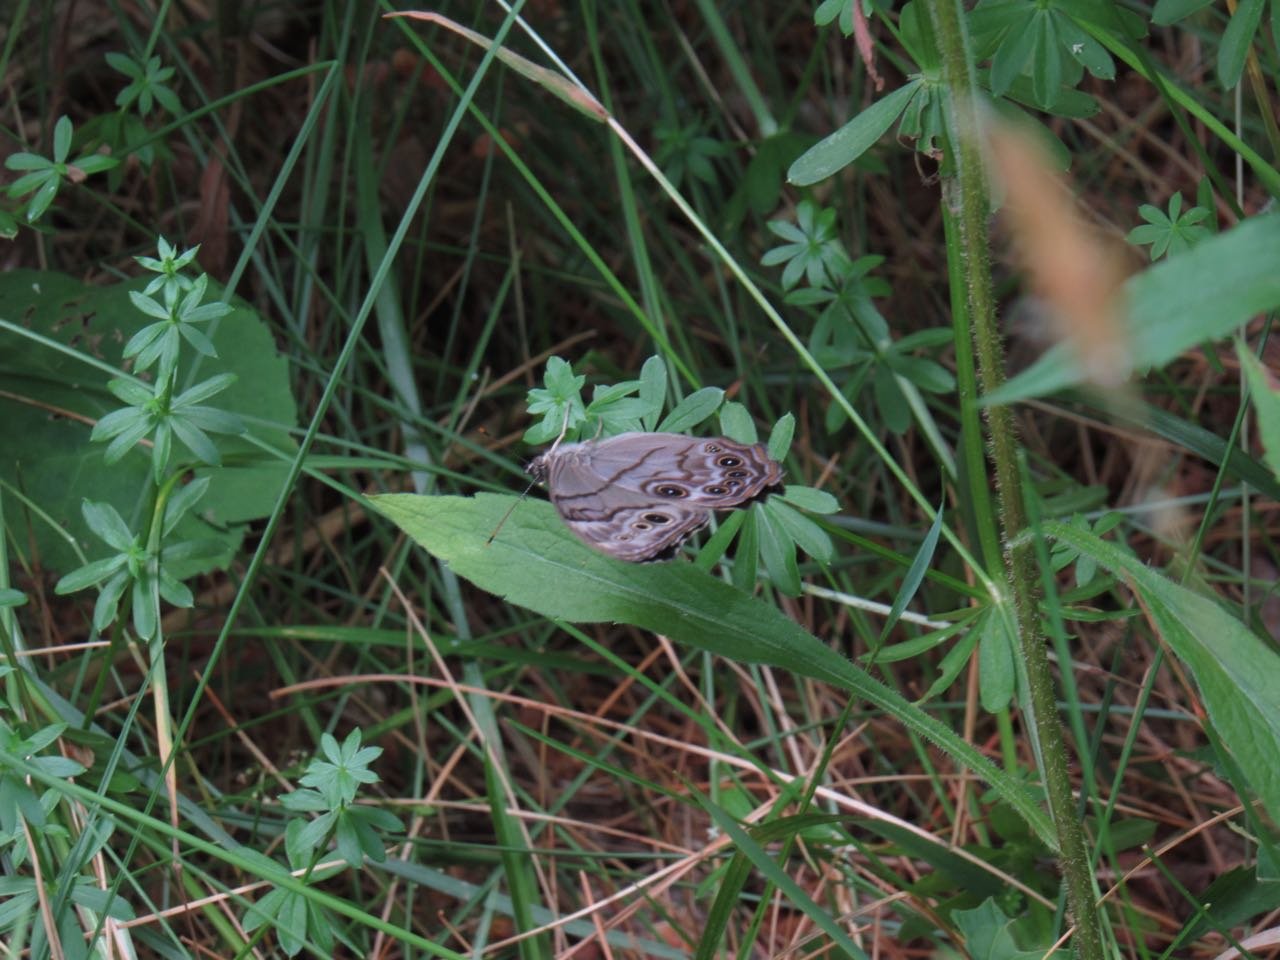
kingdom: Animalia
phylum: Arthropoda
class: Insecta
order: Lepidoptera
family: Nymphalidae
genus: Lethe
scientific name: Lethe anthedon
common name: Northern Pearly-Eye
